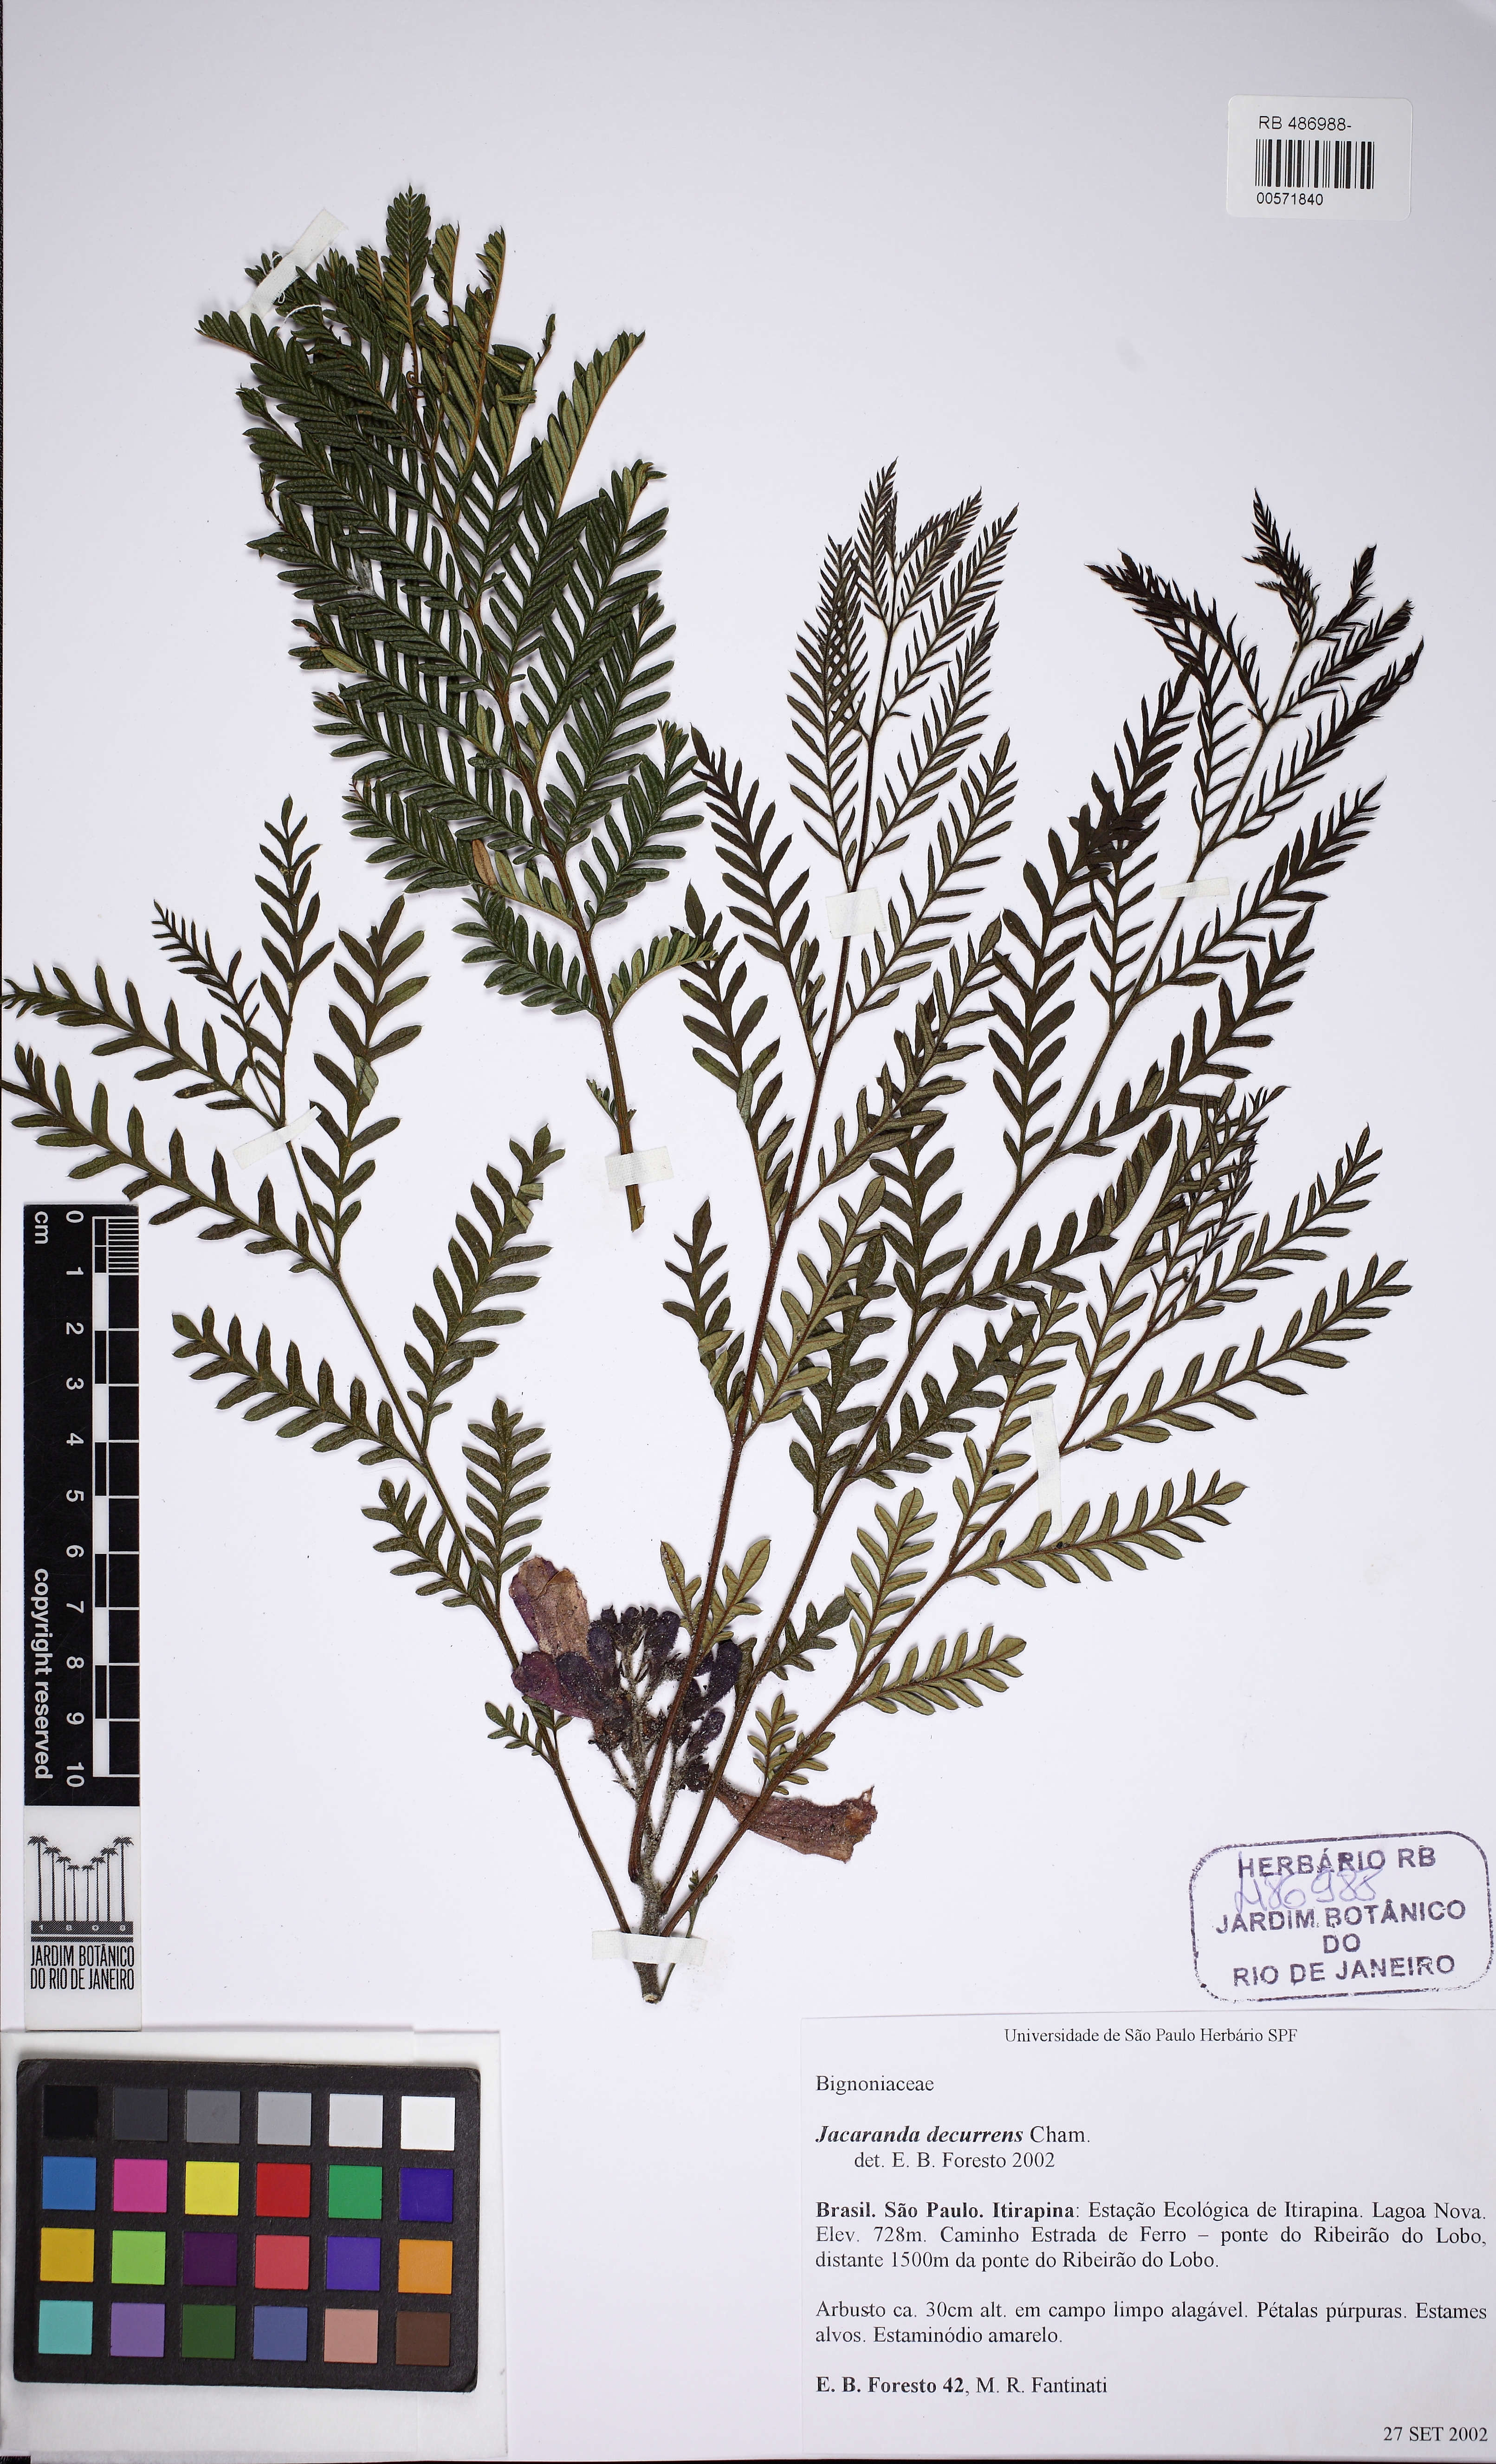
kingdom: Plantae
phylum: Tracheophyta
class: Magnoliopsida
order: Lamiales
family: Bignoniaceae
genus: Jacaranda
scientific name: Jacaranda decurrens
